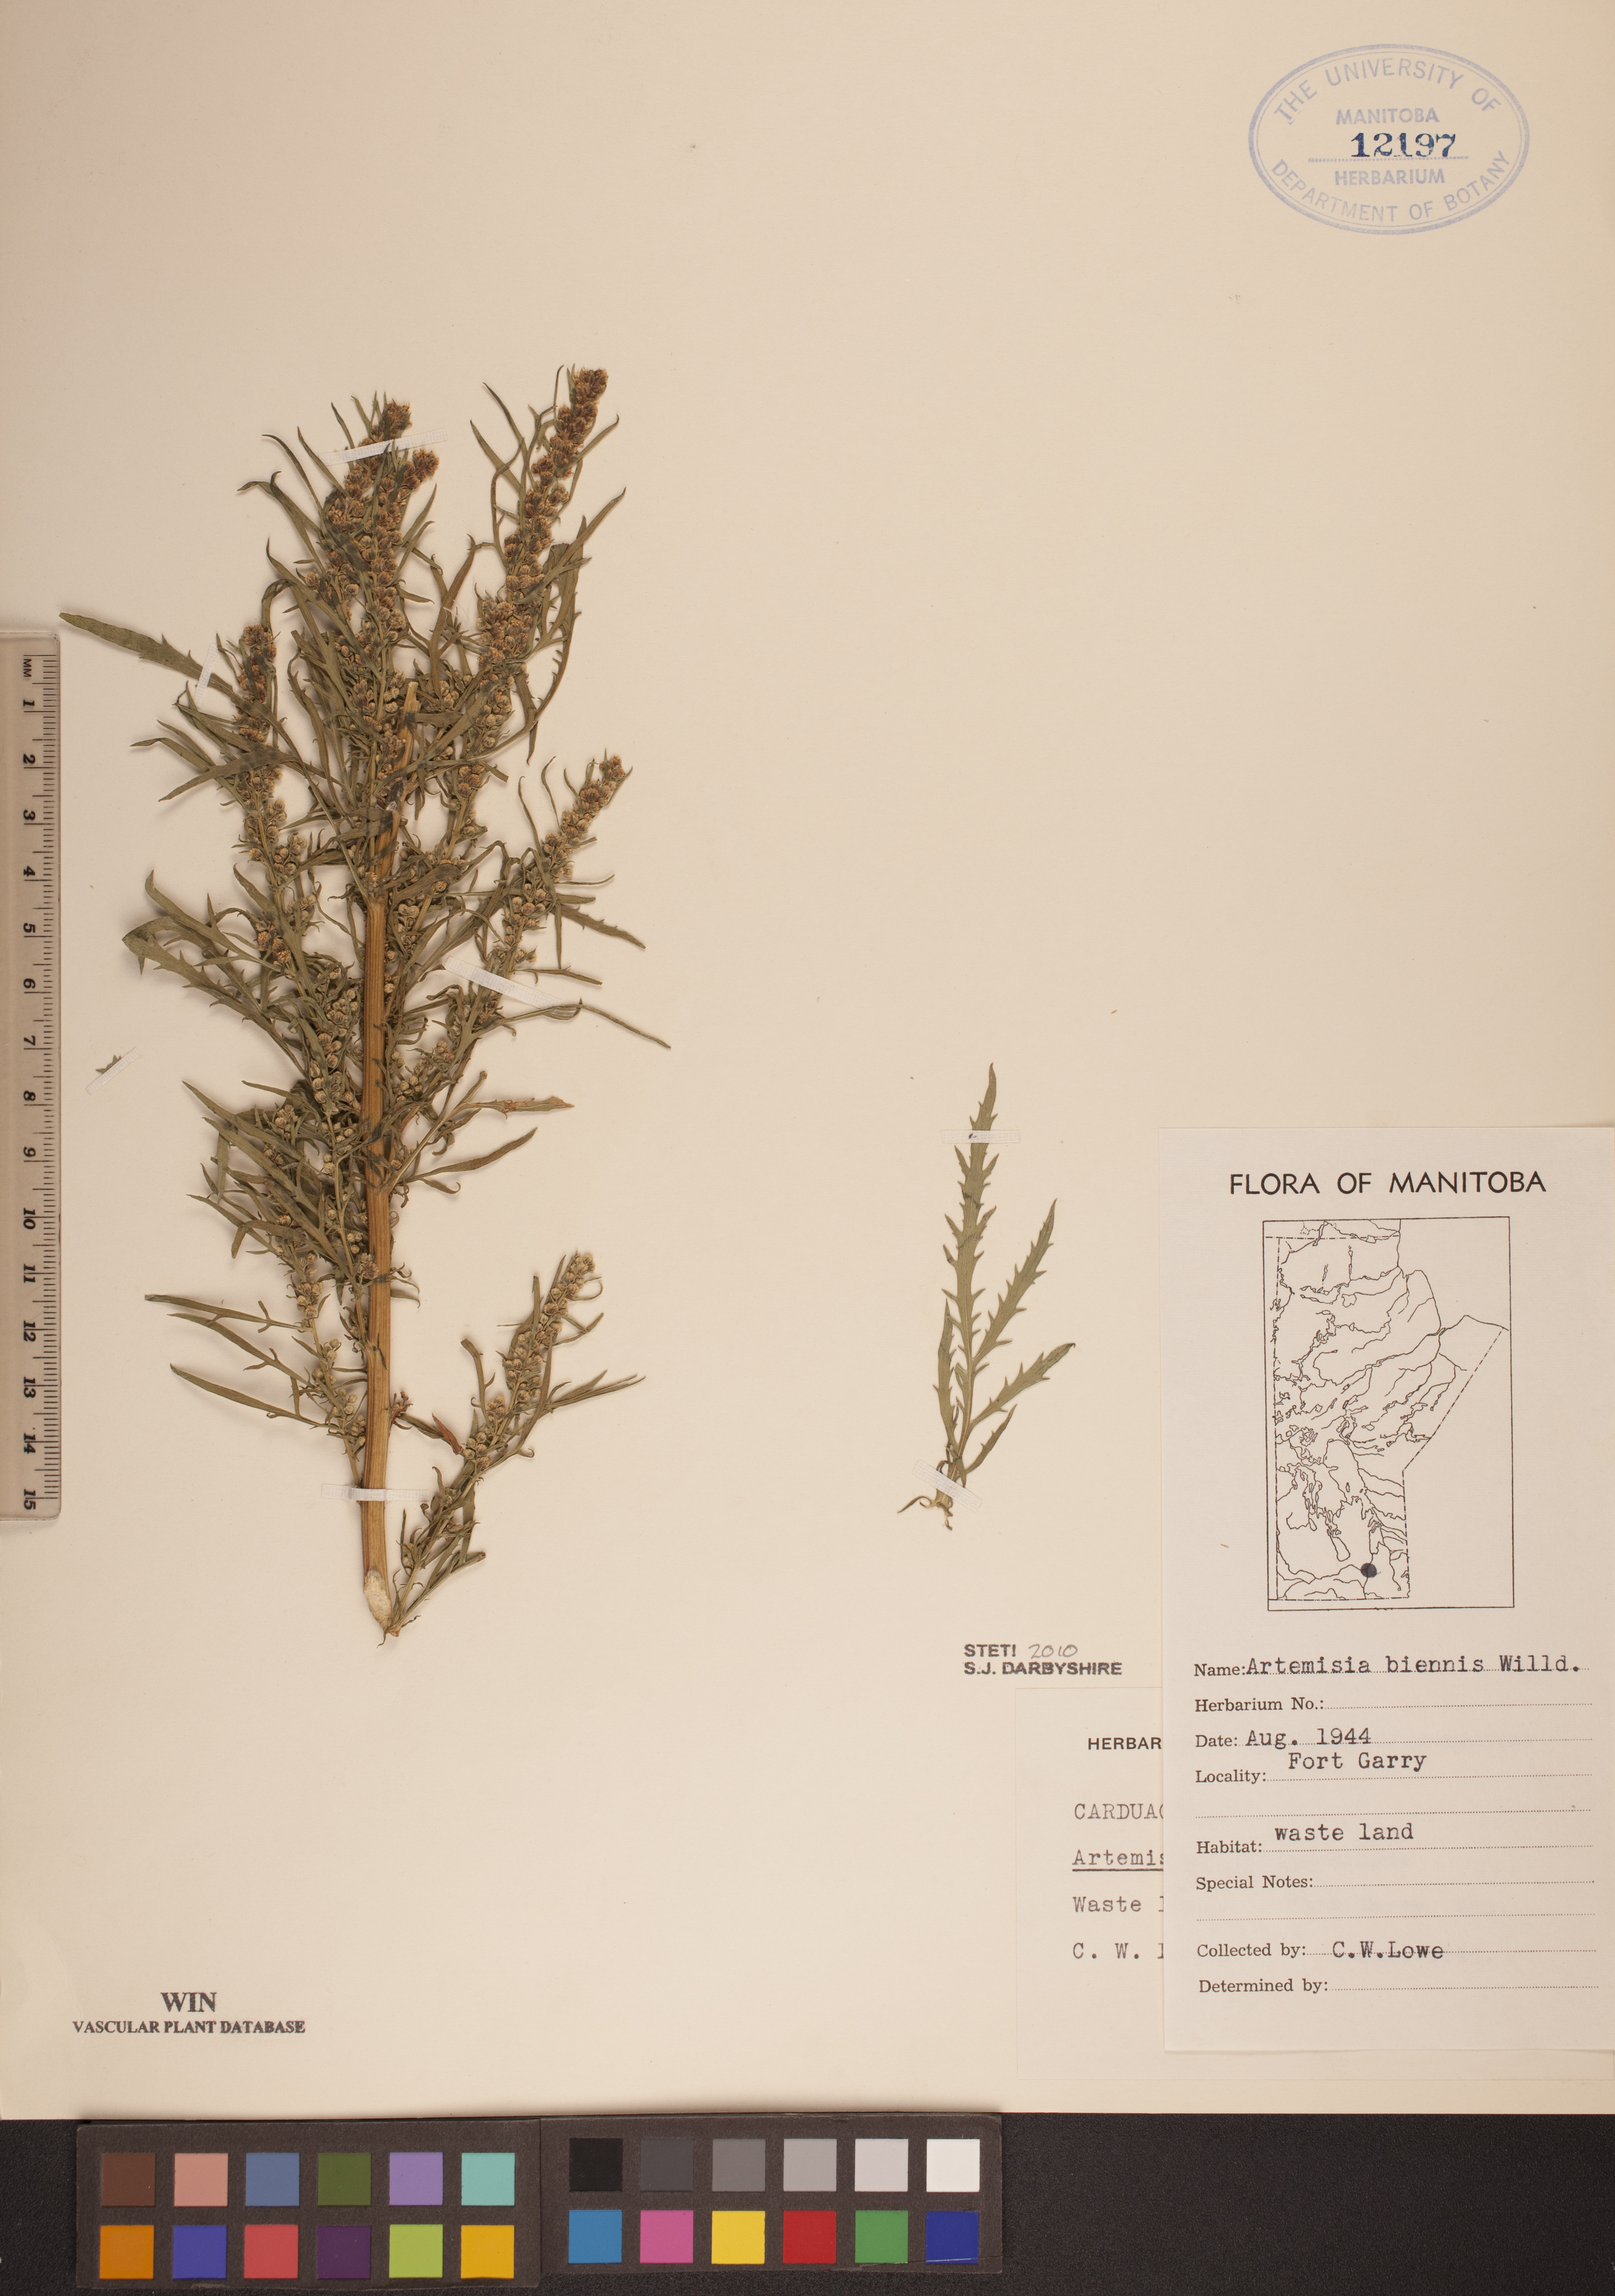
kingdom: Plantae
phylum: Tracheophyta
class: Magnoliopsida
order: Asterales
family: Asteraceae
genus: Artemisia
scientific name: Artemisia biennis
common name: Biennial wormwood
